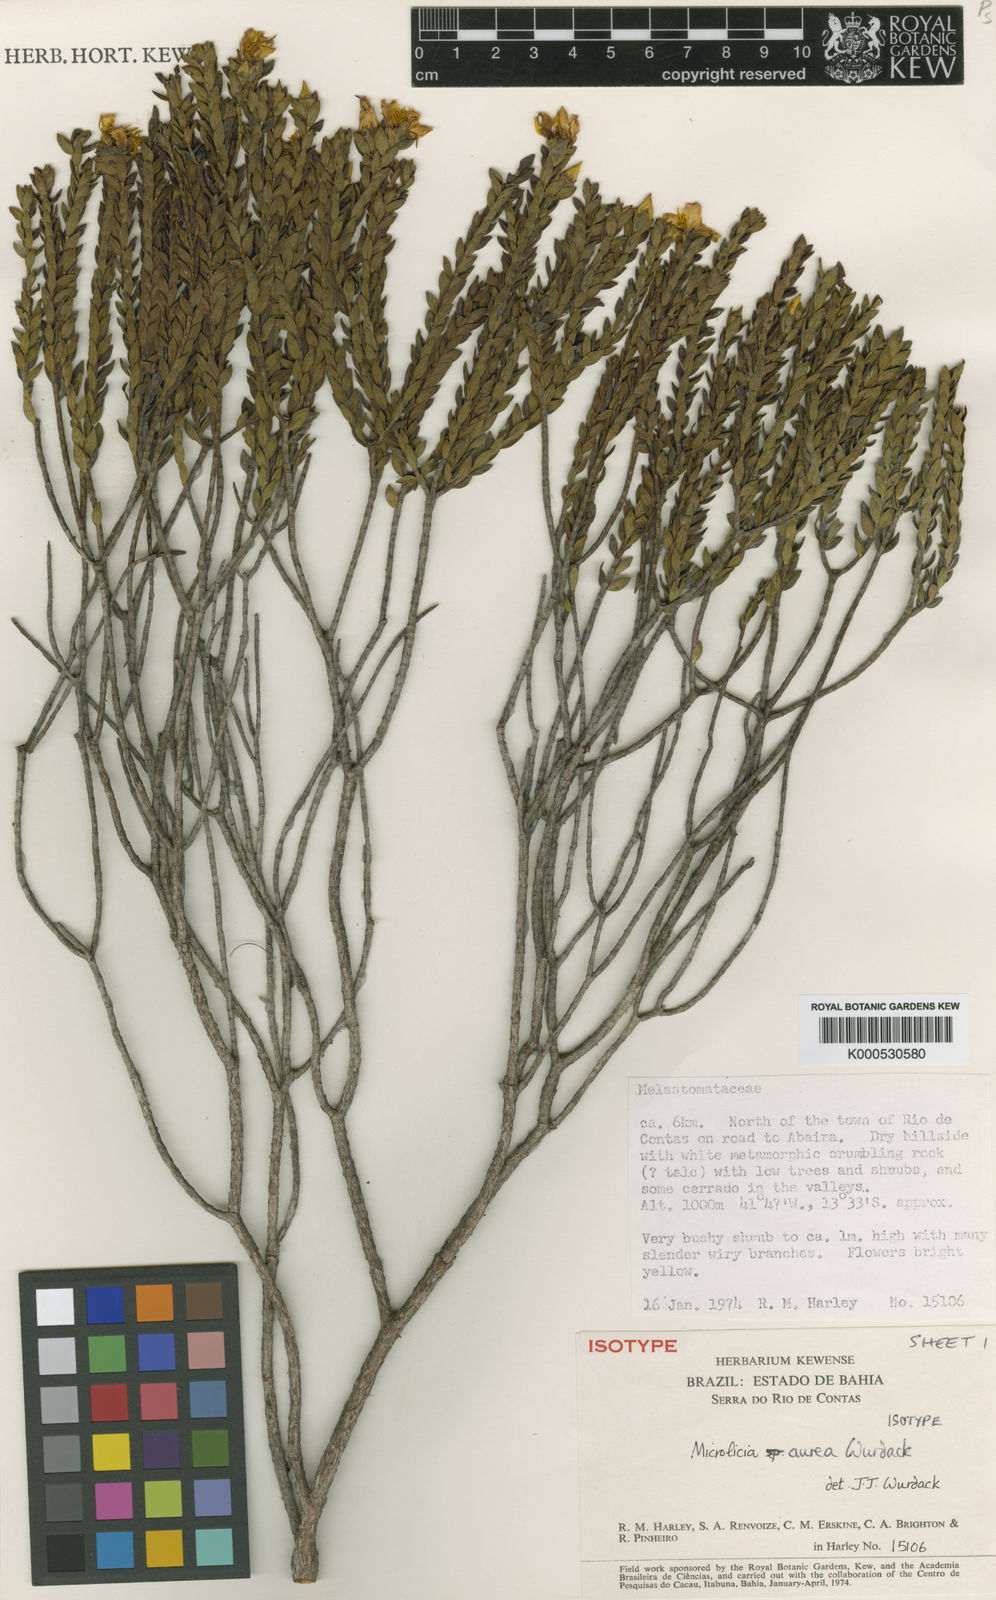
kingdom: Plantae
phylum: Tracheophyta
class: Magnoliopsida
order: Myrtales
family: Melastomataceae
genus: Microlicia
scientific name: Microlicia aurea
